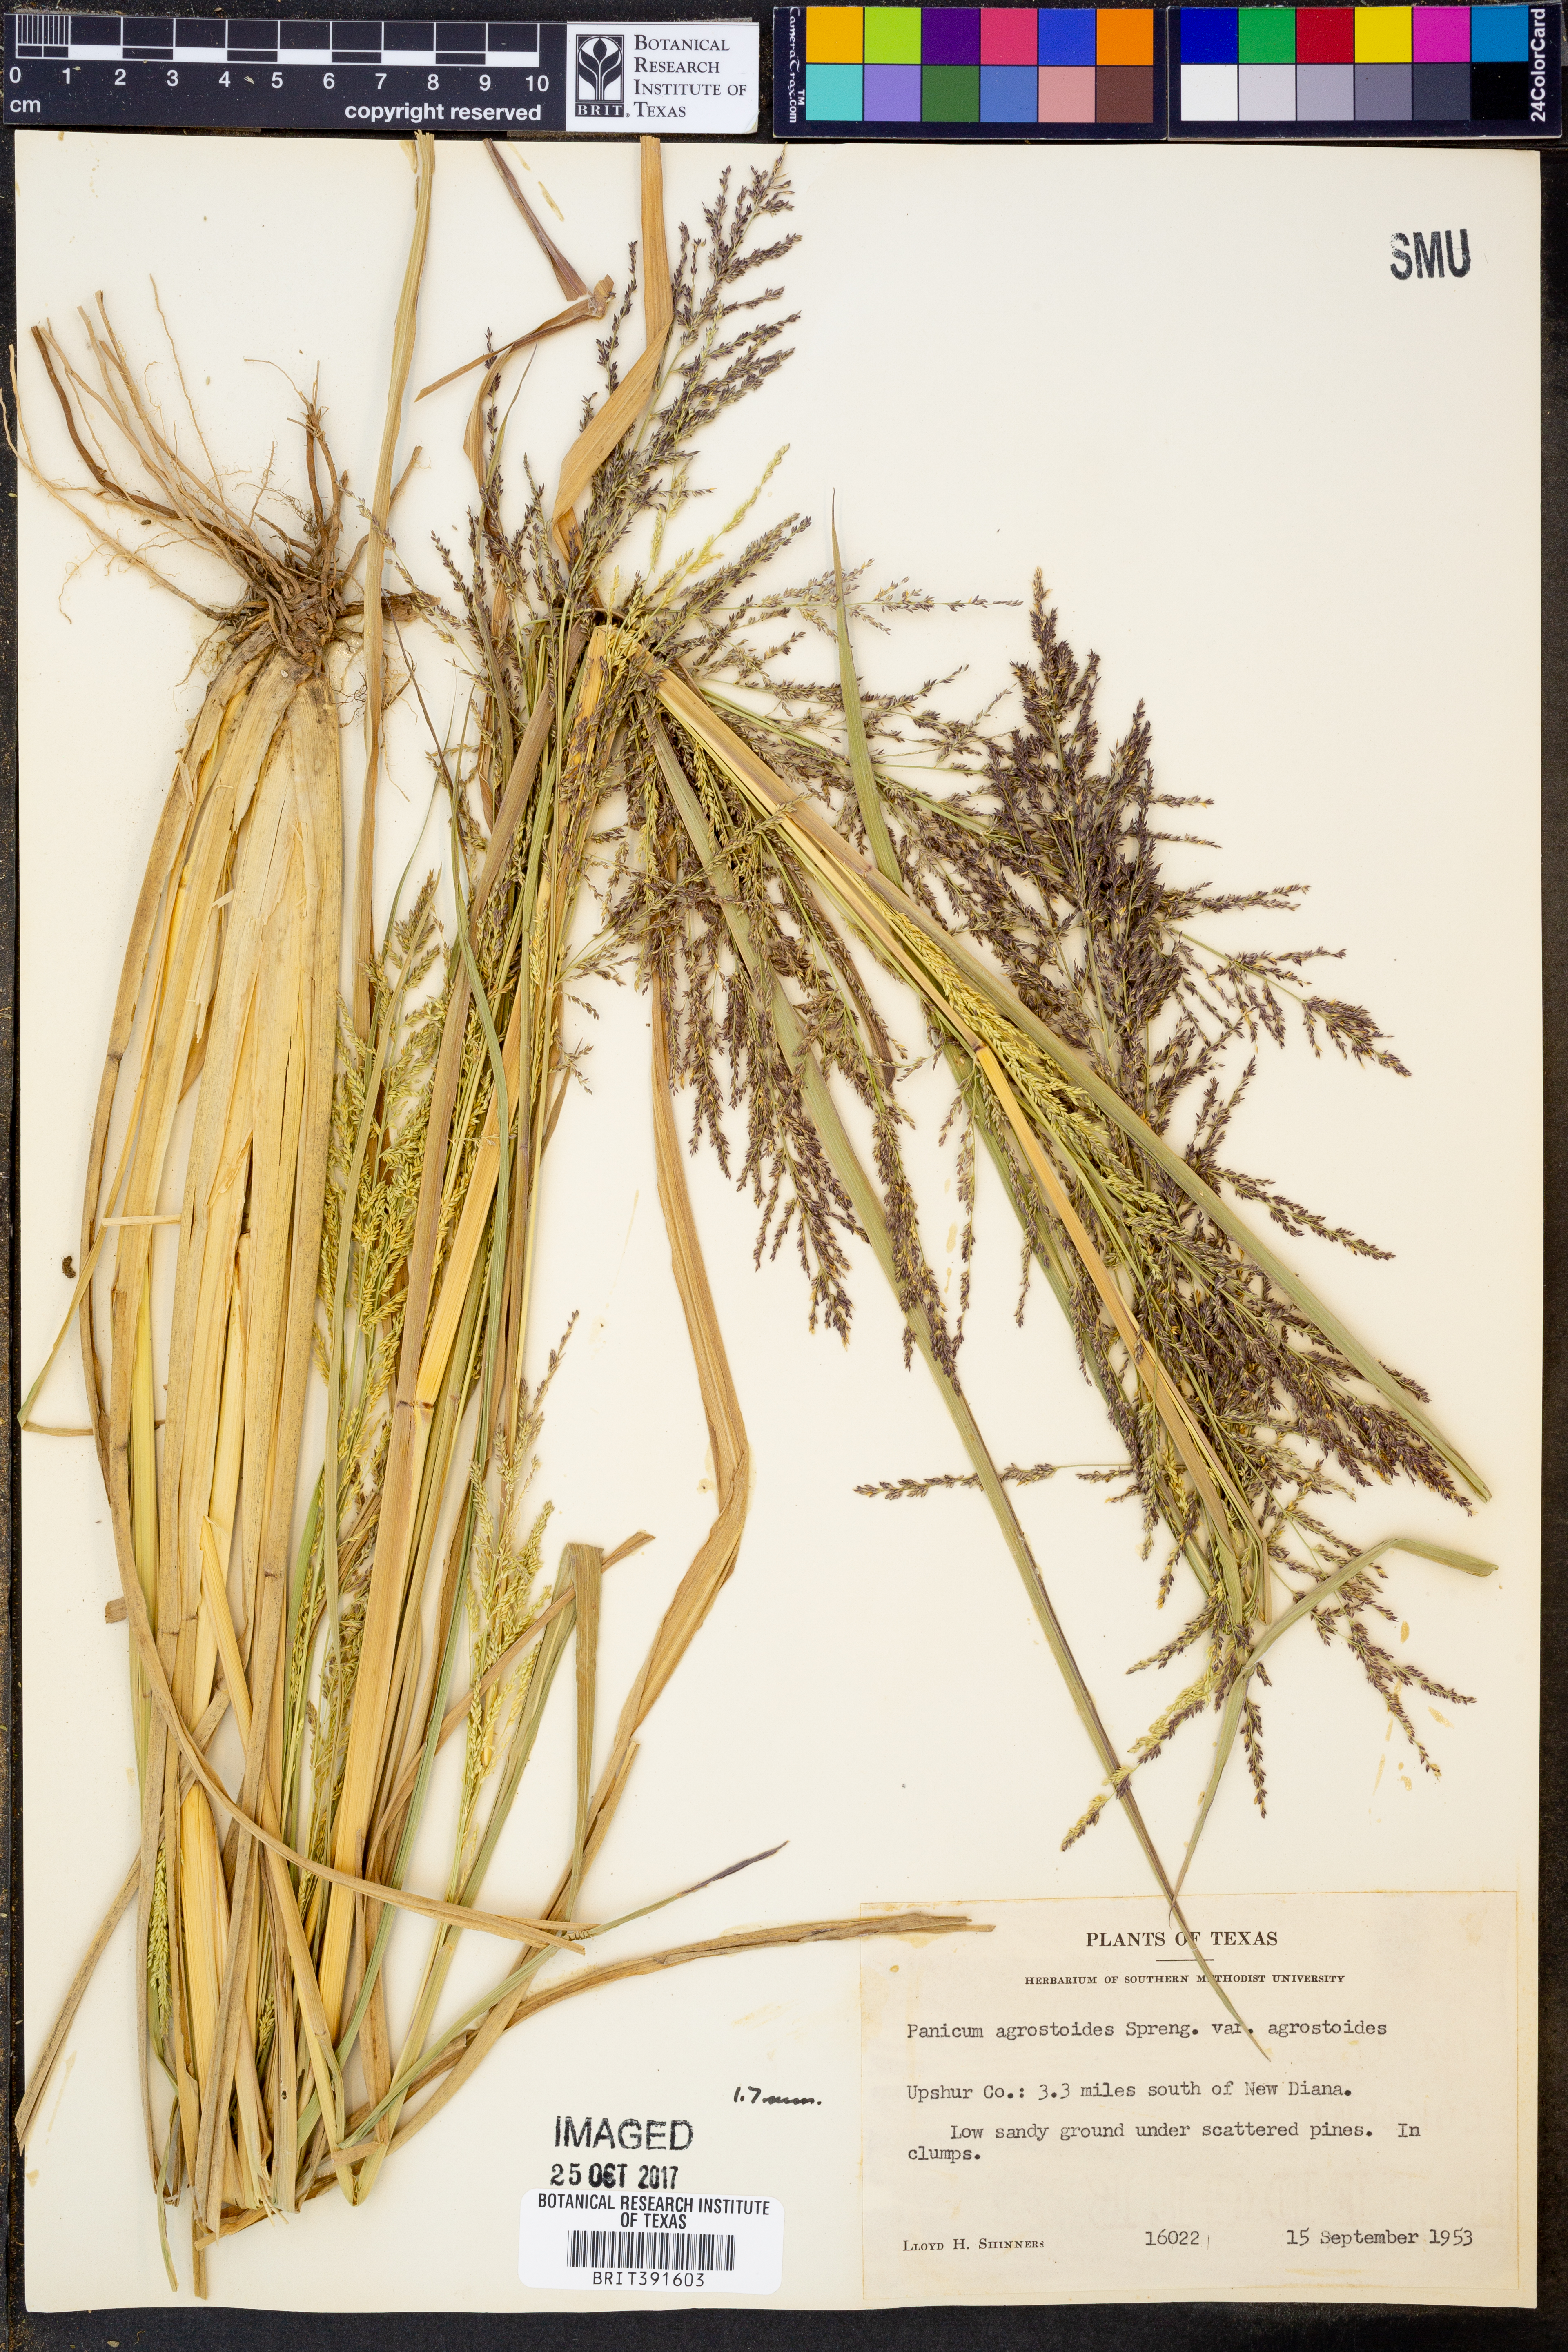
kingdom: Plantae
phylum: Tracheophyta
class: Liliopsida
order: Poales
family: Poaceae
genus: Coleataenia
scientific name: Coleataenia rigidula
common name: Redtop panicgrass
